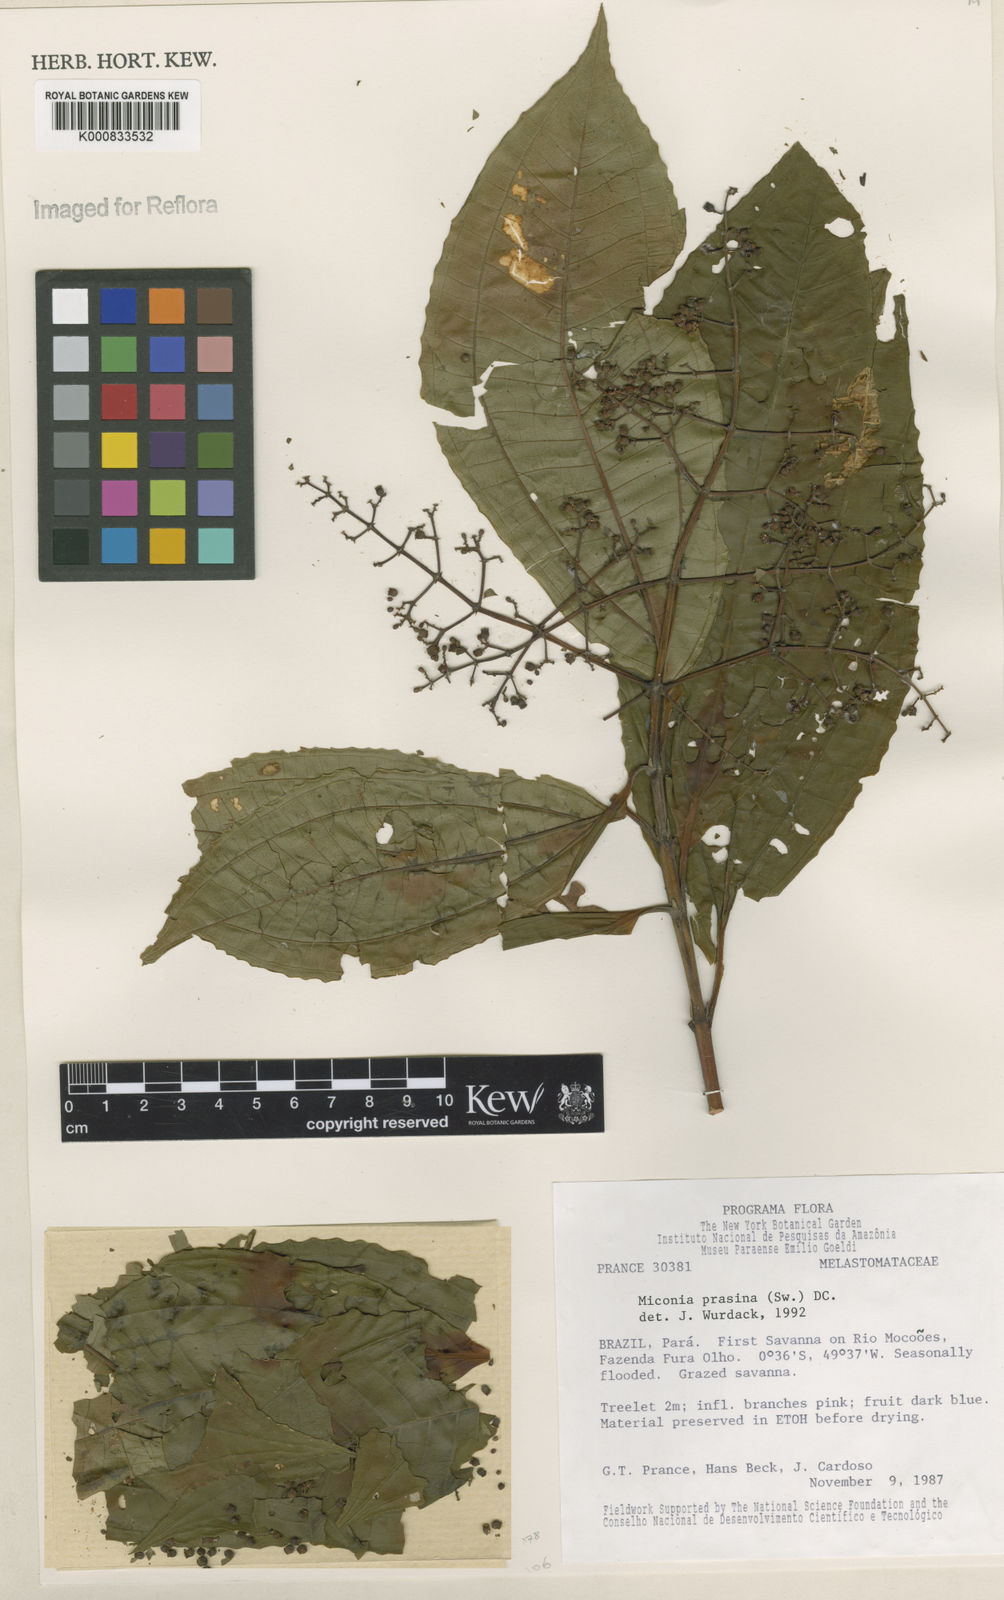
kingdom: Plantae
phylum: Tracheophyta
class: Magnoliopsida
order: Myrtales
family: Melastomataceae
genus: Miconia
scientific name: Miconia prasina
